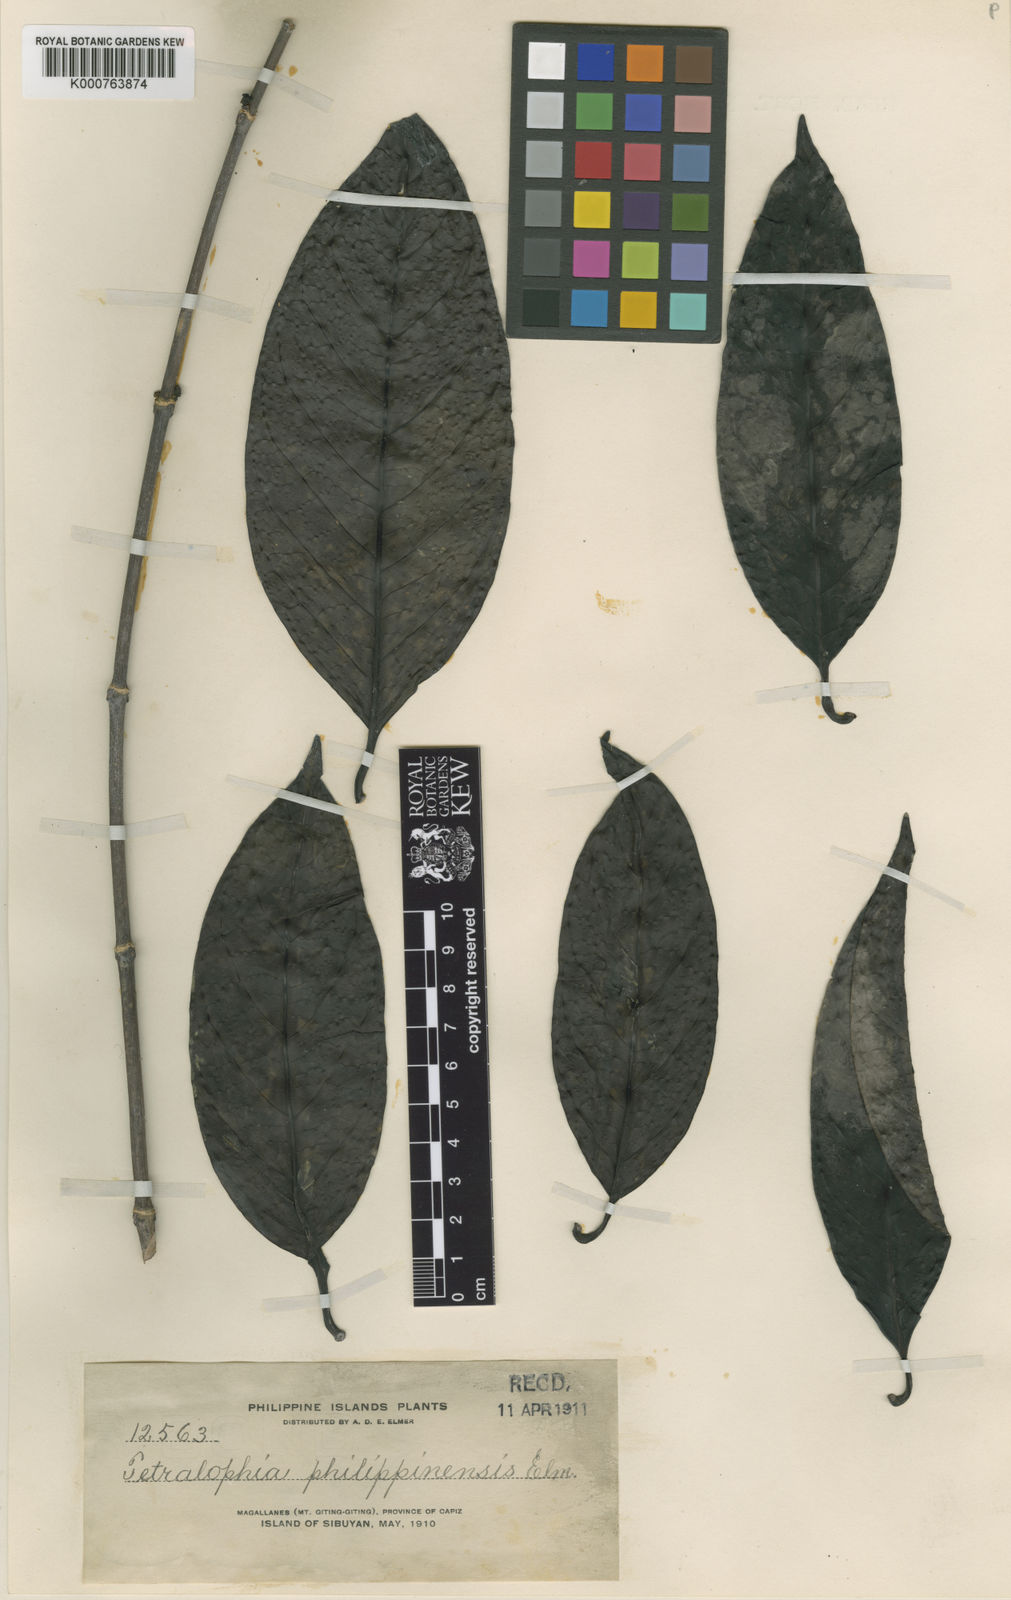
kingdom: Plantae
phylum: Tracheophyta
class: Magnoliopsida
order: Gentianales
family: Rubiaceae
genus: Gynochthodes
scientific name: Gynochthodes philippinensis
